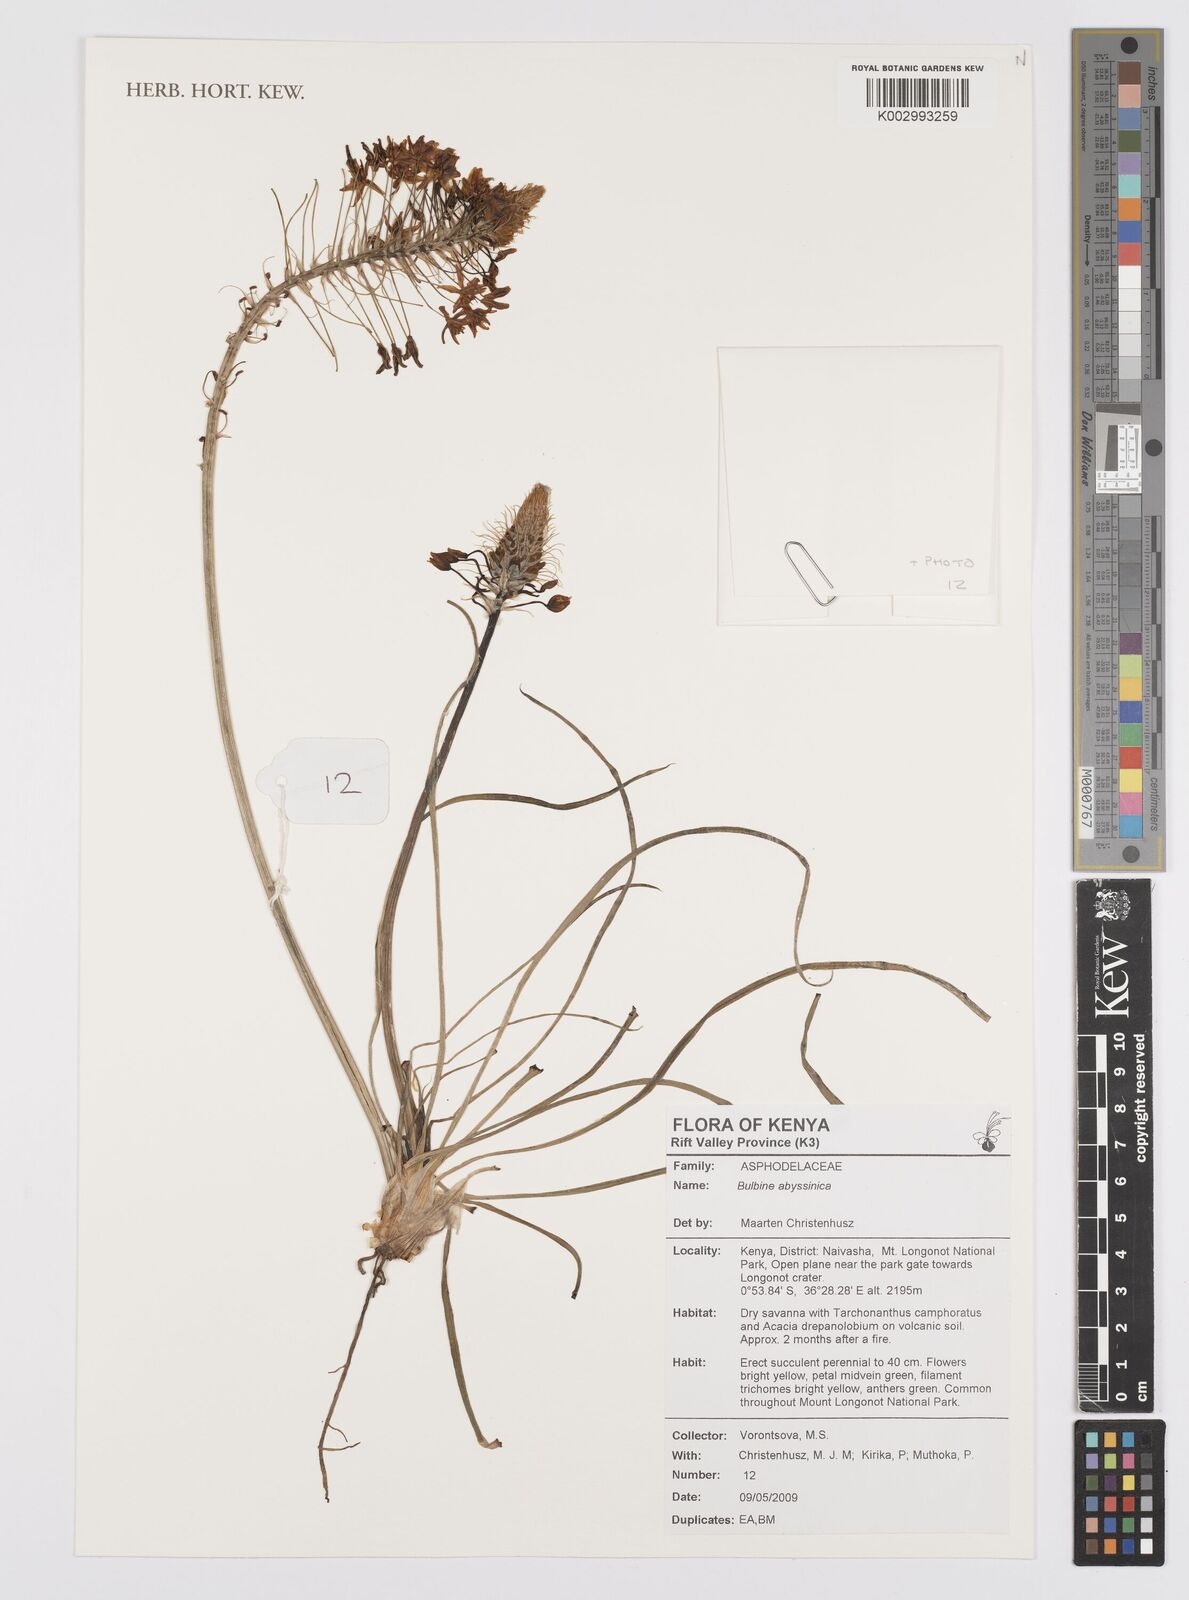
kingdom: Plantae
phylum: Tracheophyta
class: Liliopsida
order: Asparagales
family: Asphodelaceae
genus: Bulbine
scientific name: Bulbine abyssinica
